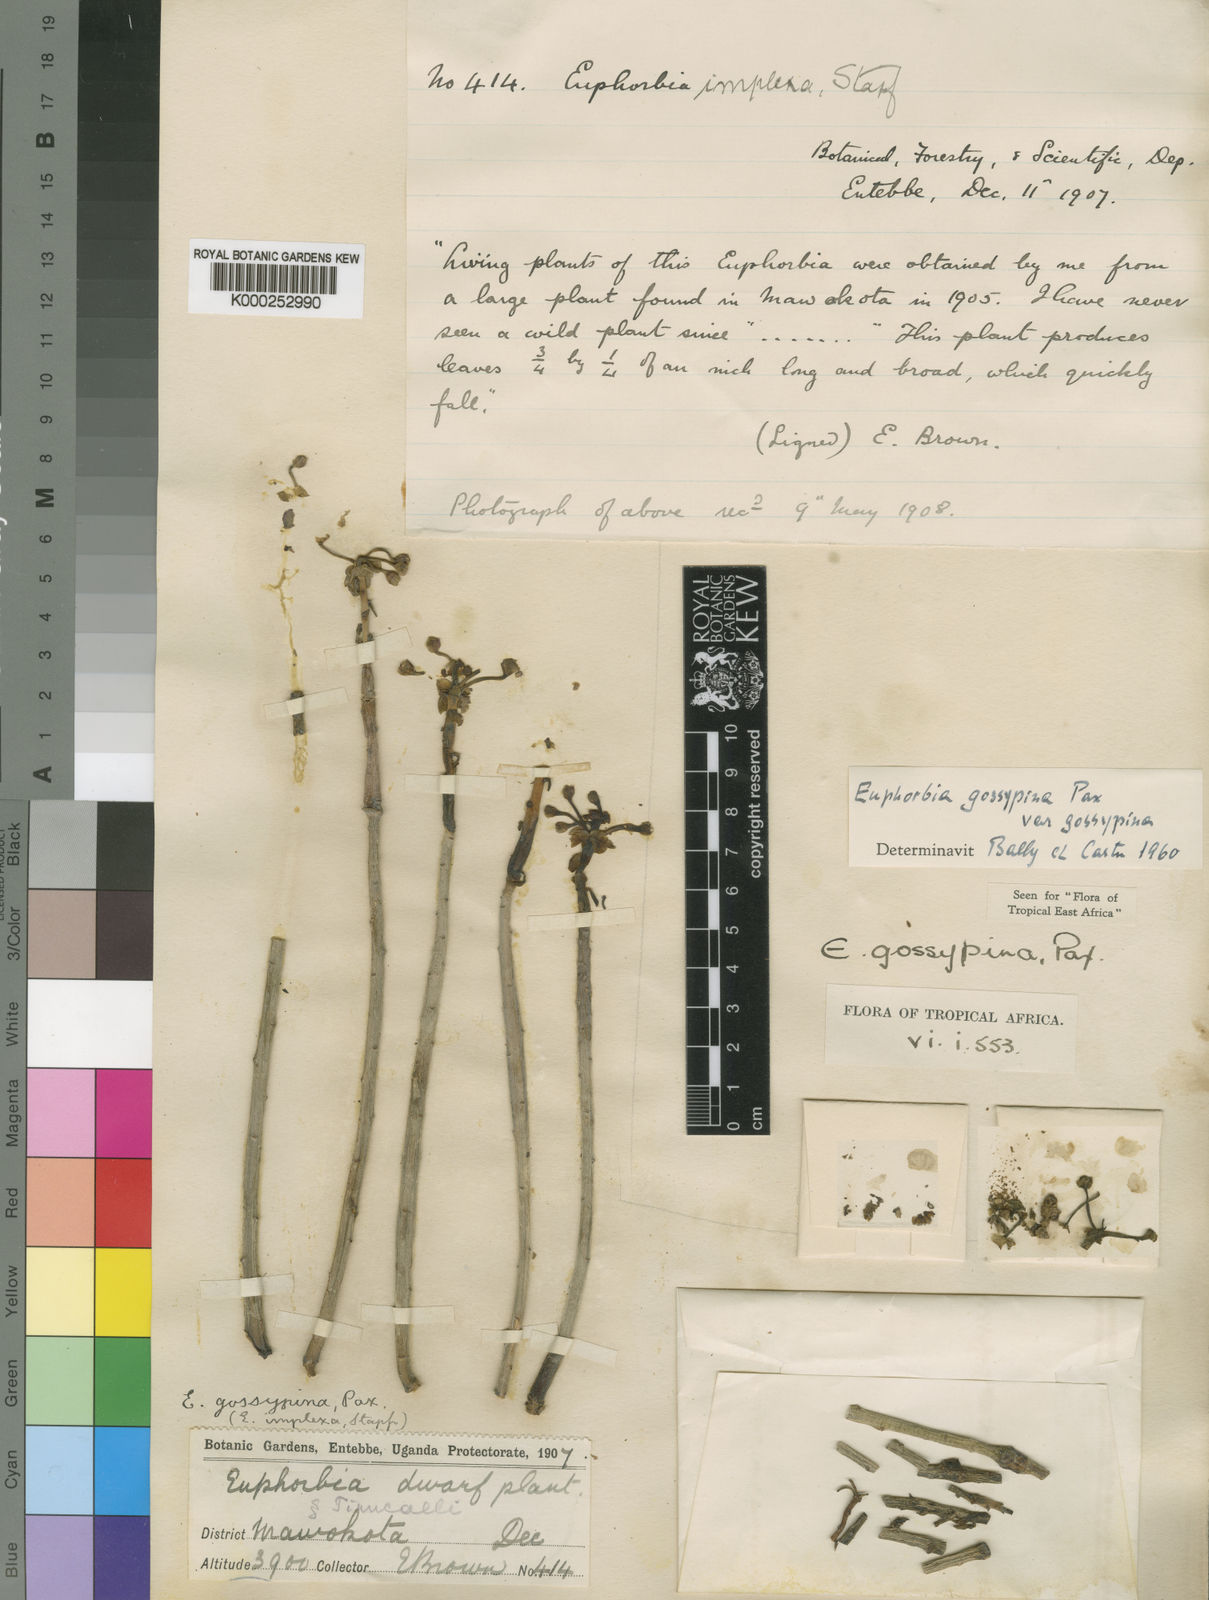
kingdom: Plantae
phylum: Tracheophyta
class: Magnoliopsida
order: Malpighiales
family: Euphorbiaceae
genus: Euphorbia
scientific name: Euphorbia gossypina
